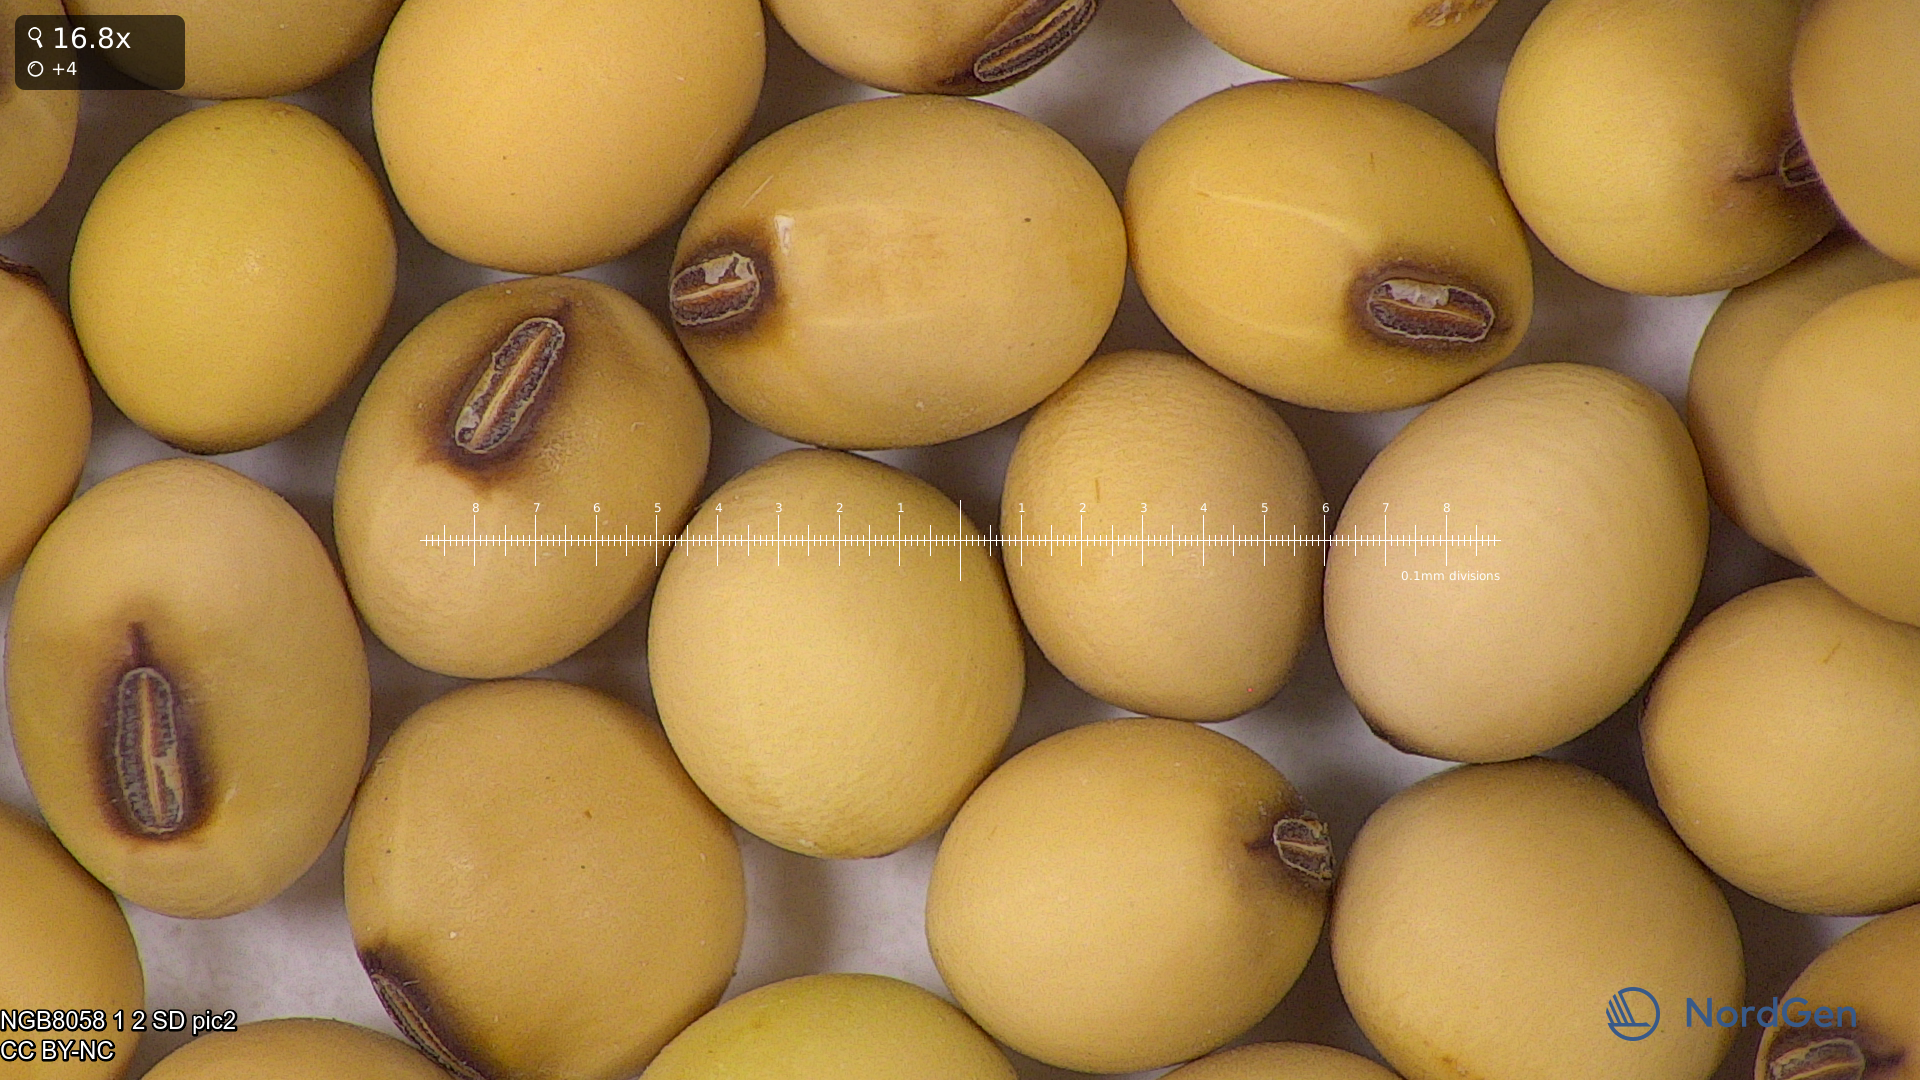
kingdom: Plantae
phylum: Tracheophyta
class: Magnoliopsida
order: Fabales
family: Fabaceae
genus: Glycine
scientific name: Glycine max
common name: Soya-bean
